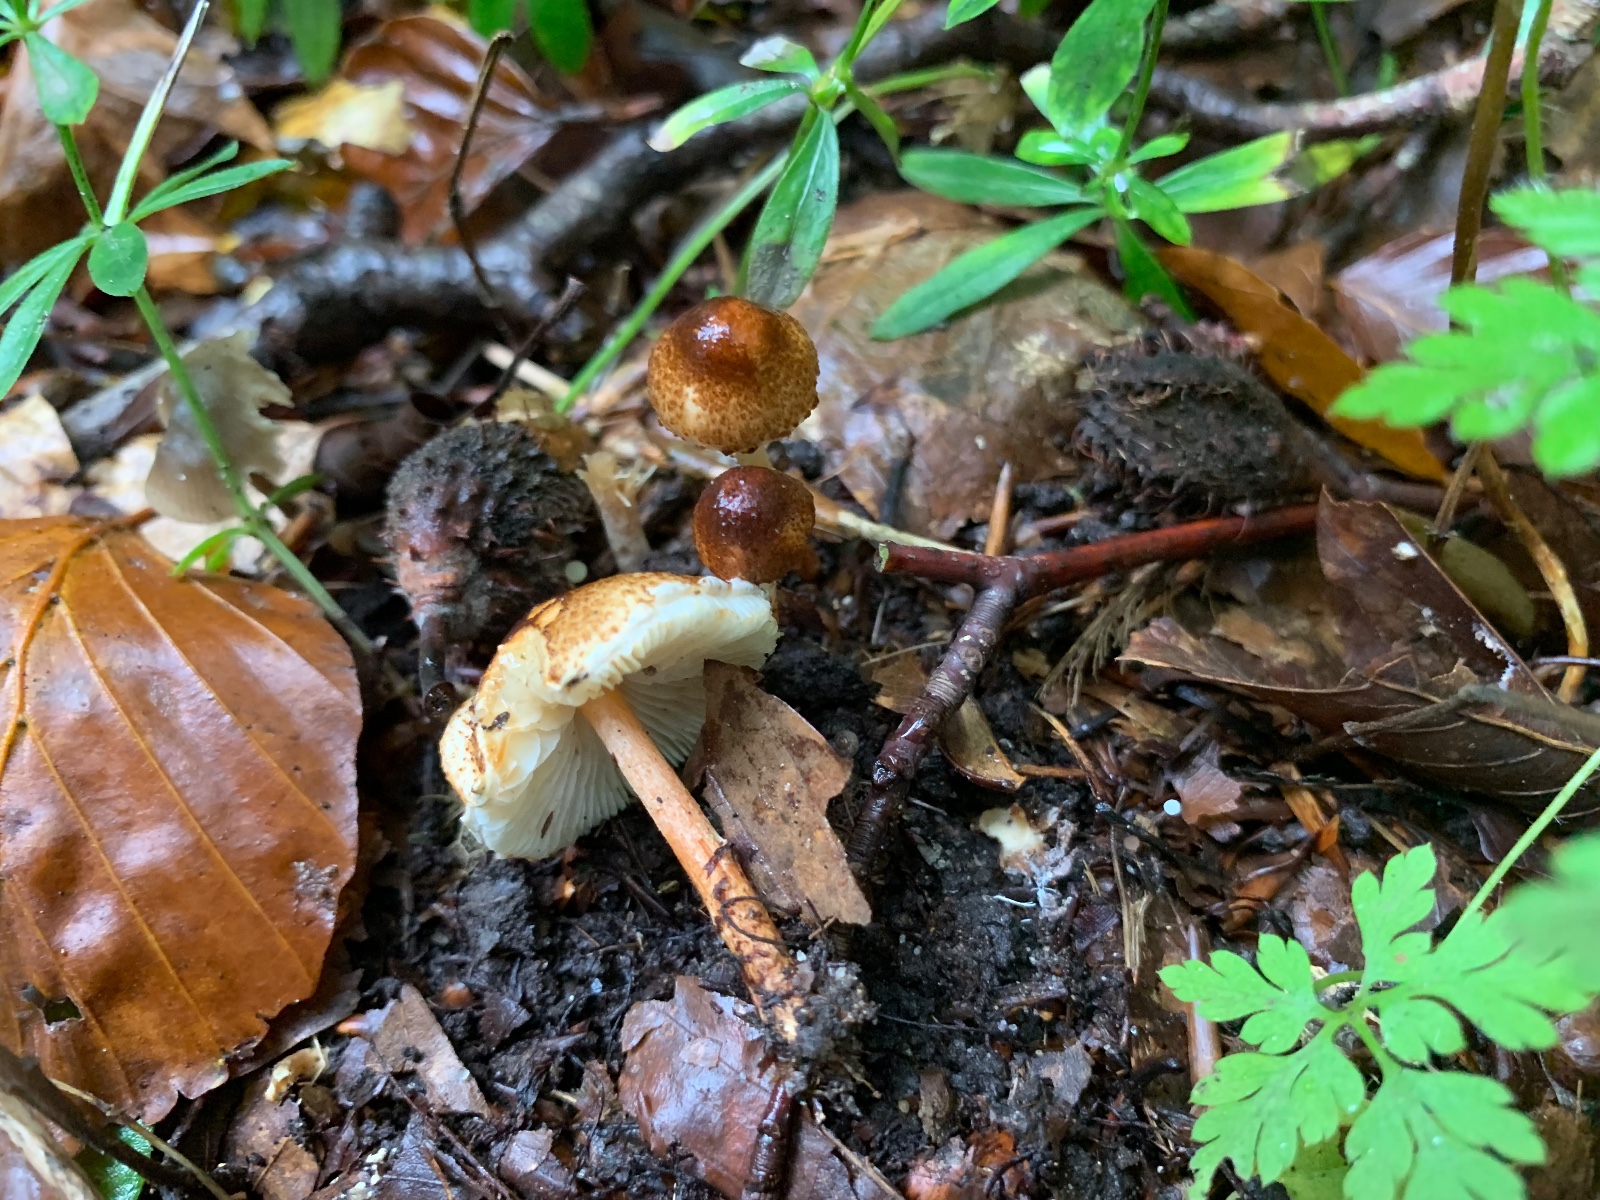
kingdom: Fungi
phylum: Basidiomycota
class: Agaricomycetes
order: Agaricales
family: Agaricaceae
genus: Lepiota
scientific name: Lepiota castanea
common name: kastaniebrun parasolhat
